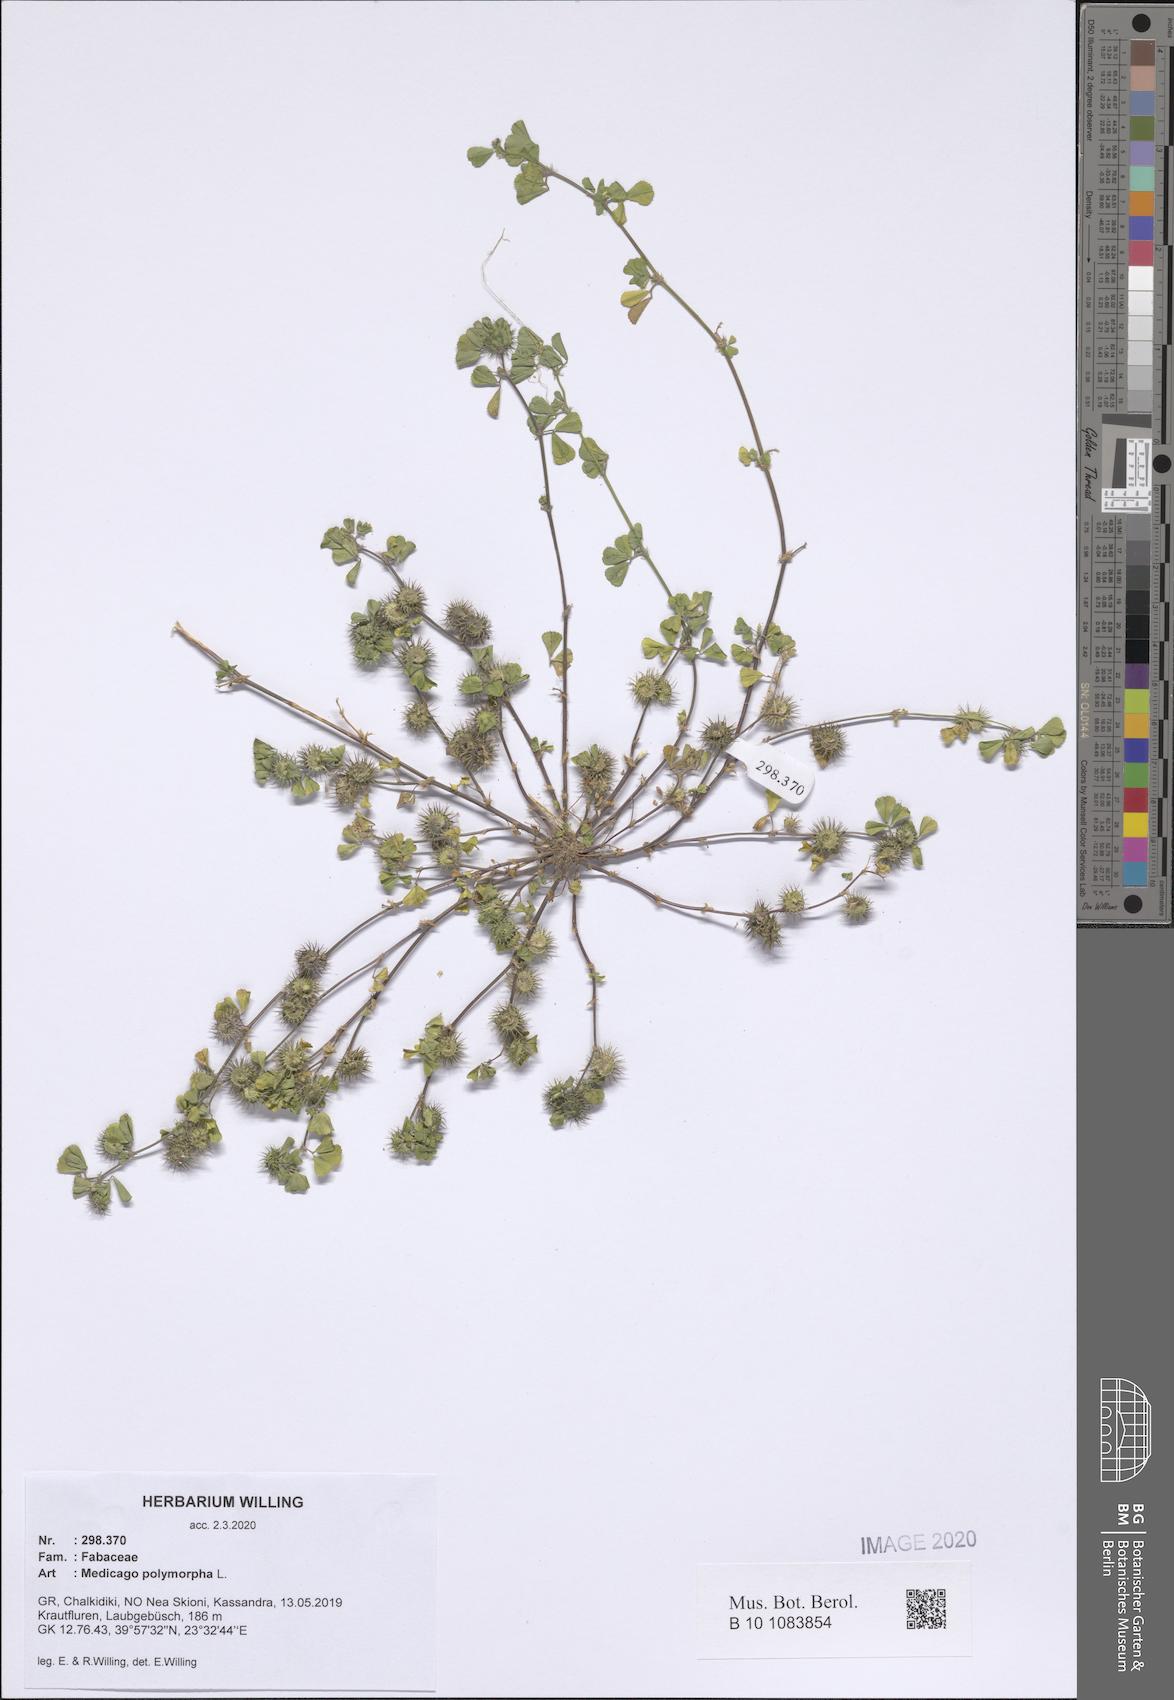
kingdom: Plantae
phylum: Tracheophyta
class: Magnoliopsida
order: Fabales
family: Fabaceae
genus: Medicago
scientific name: Medicago polymorpha
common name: Burclover
